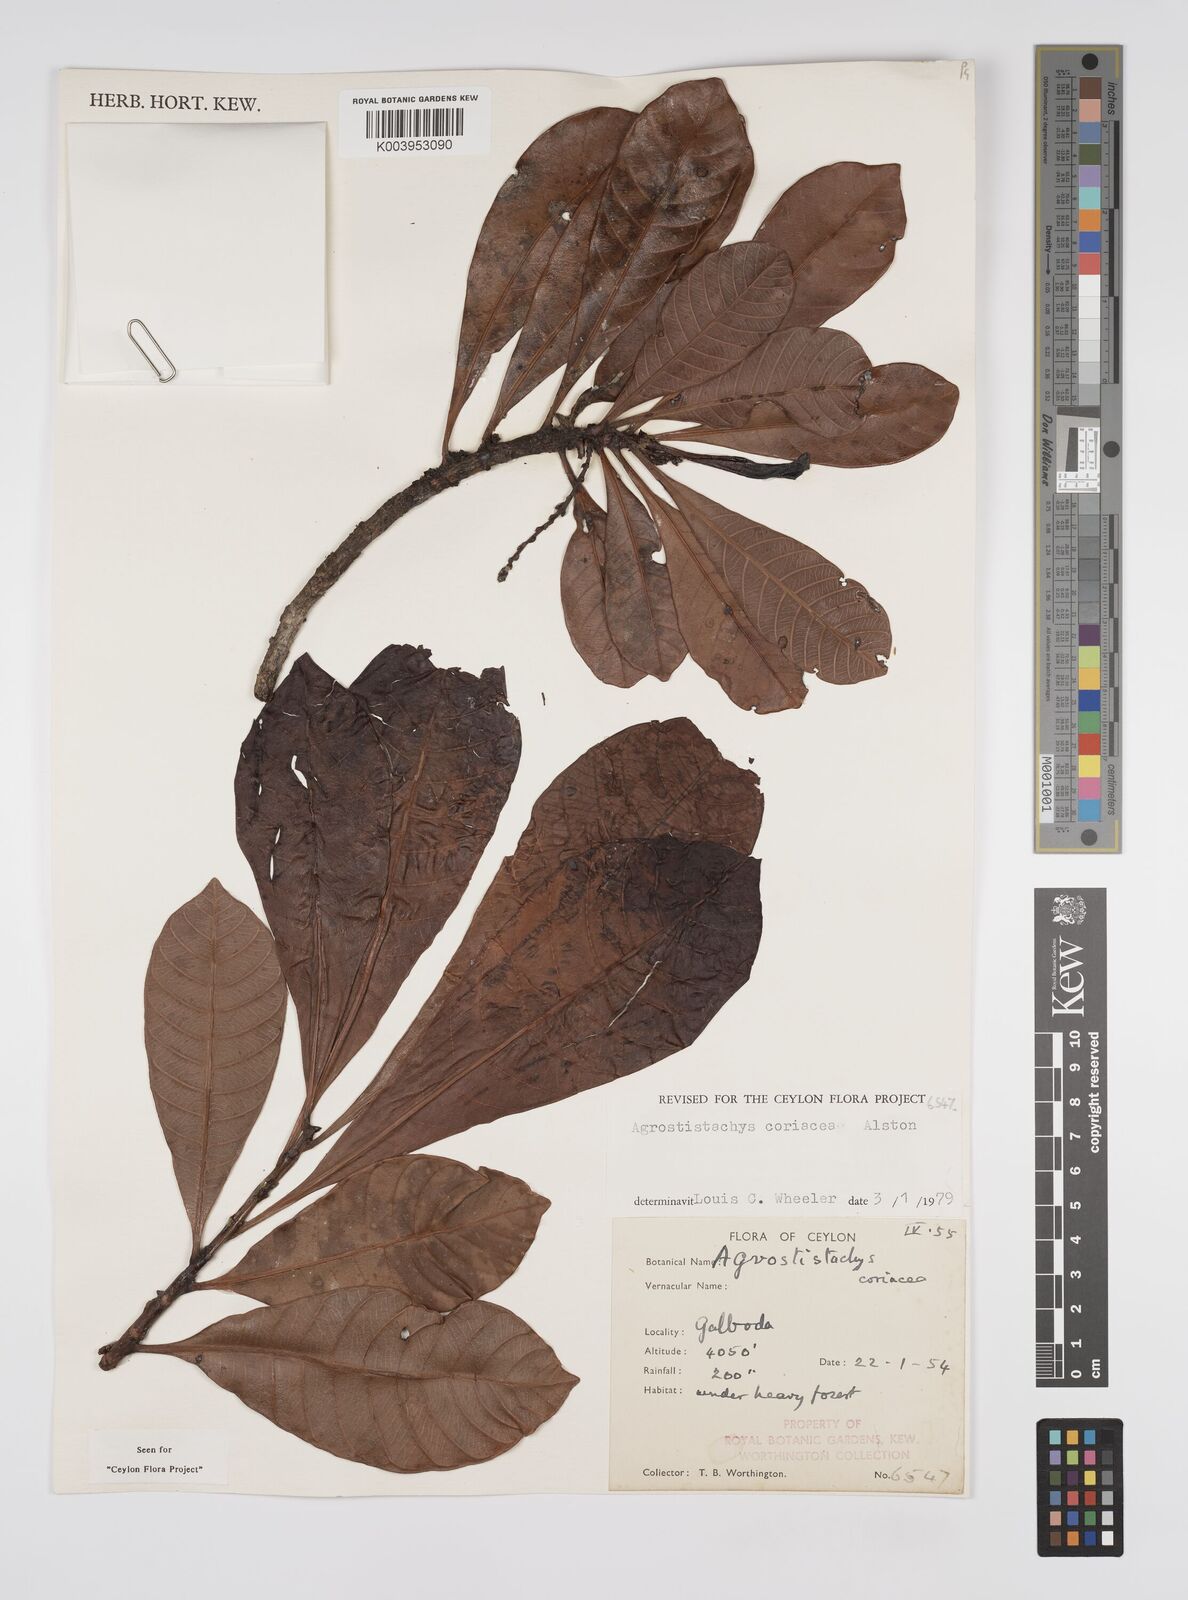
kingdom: Plantae
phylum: Tracheophyta
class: Magnoliopsida
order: Malpighiales
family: Euphorbiaceae
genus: Agrostistachys
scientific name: Agrostistachys borneensis
